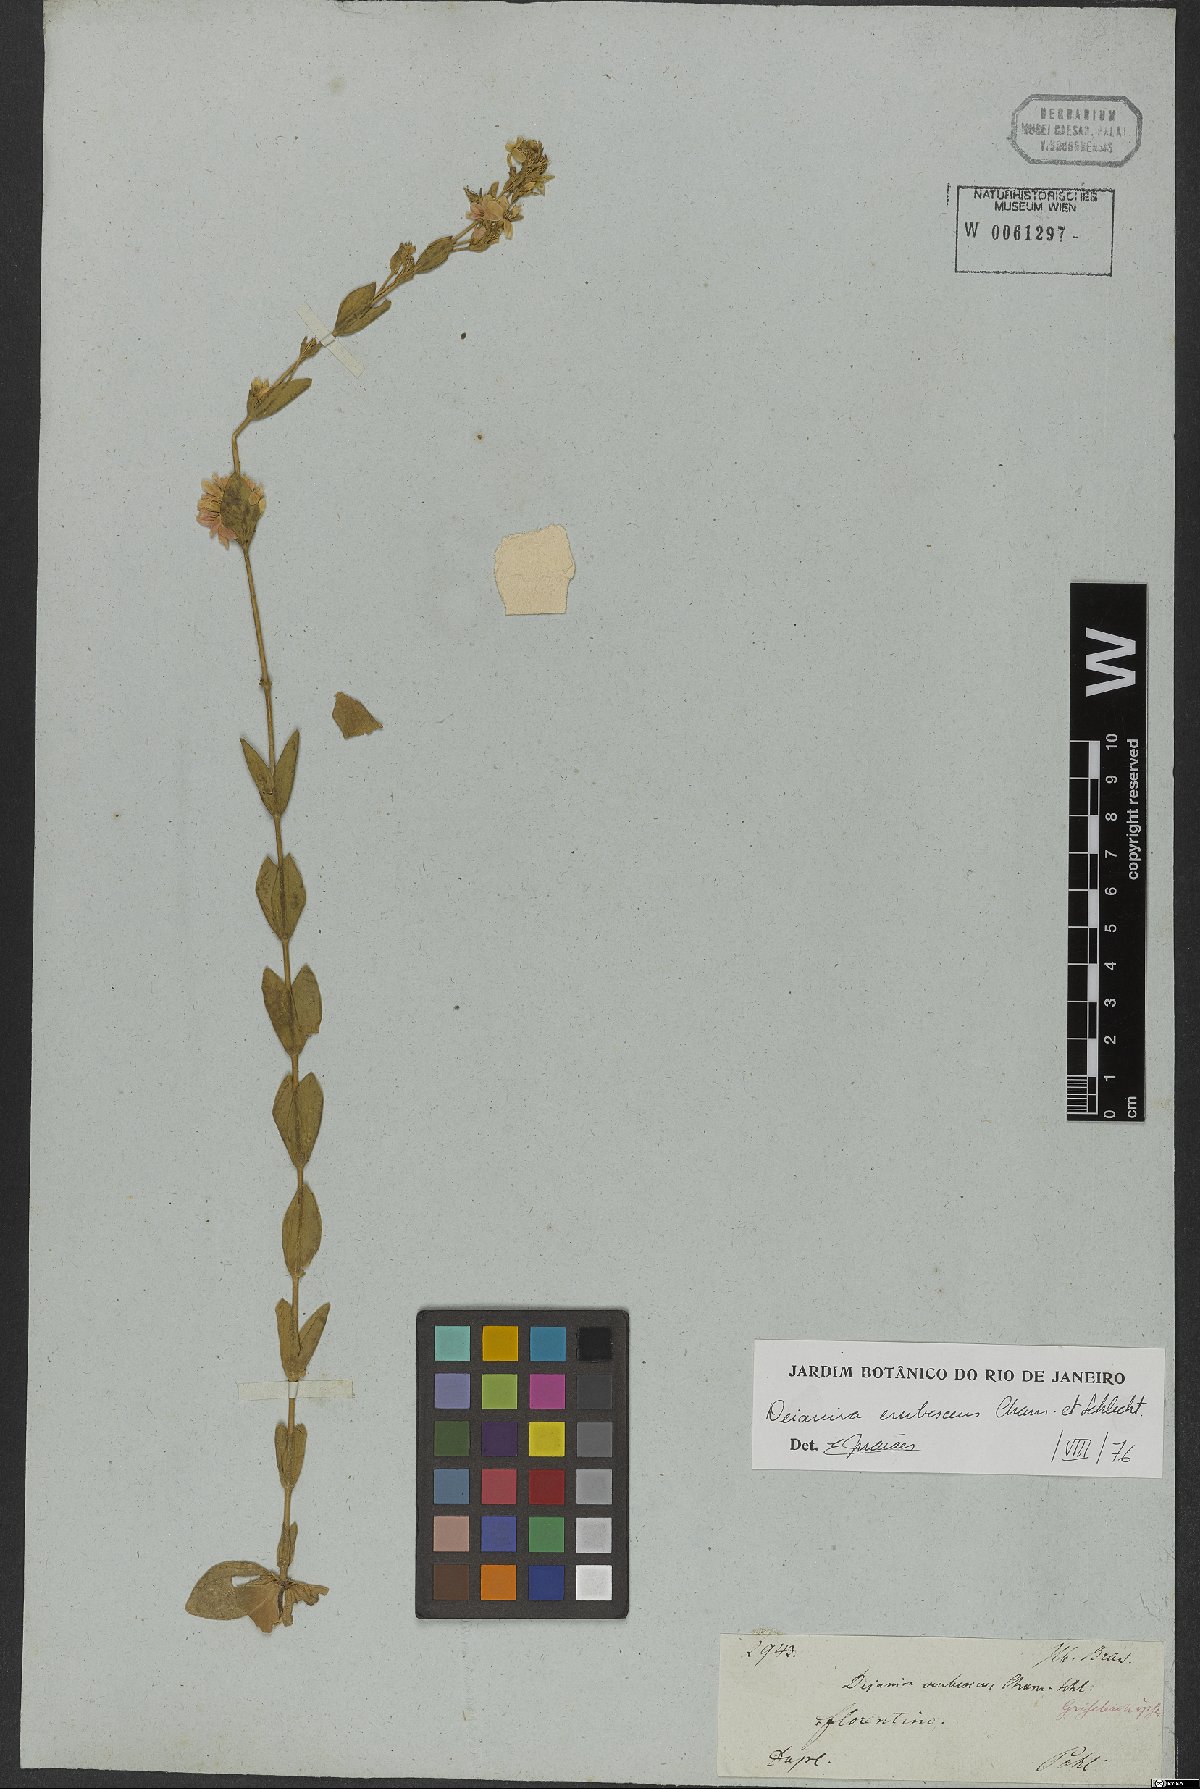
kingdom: Plantae
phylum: Tracheophyta
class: Magnoliopsida
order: Gentianales
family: Gentianaceae
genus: Deianira
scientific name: Deianira erubescens
